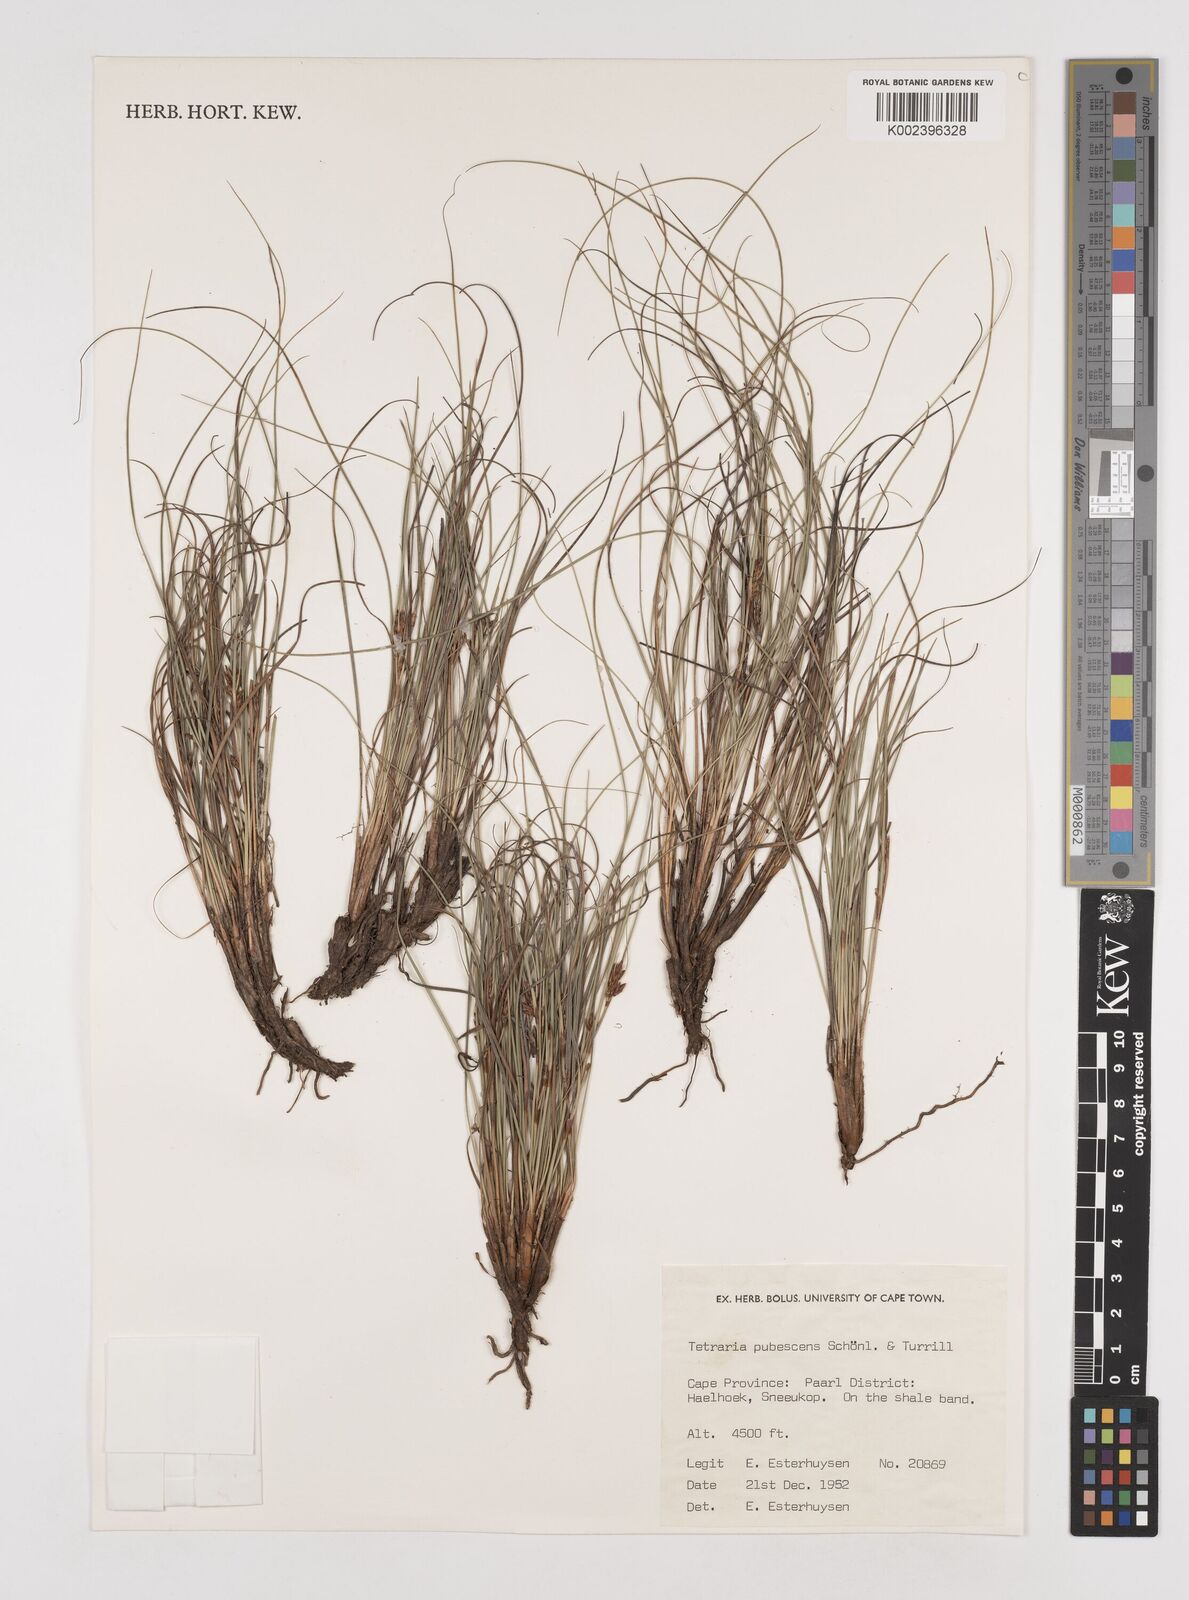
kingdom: Plantae
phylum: Tracheophyta
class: Liliopsida
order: Poales
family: Cyperaceae
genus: Tetraria
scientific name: Tetraria pubescens
